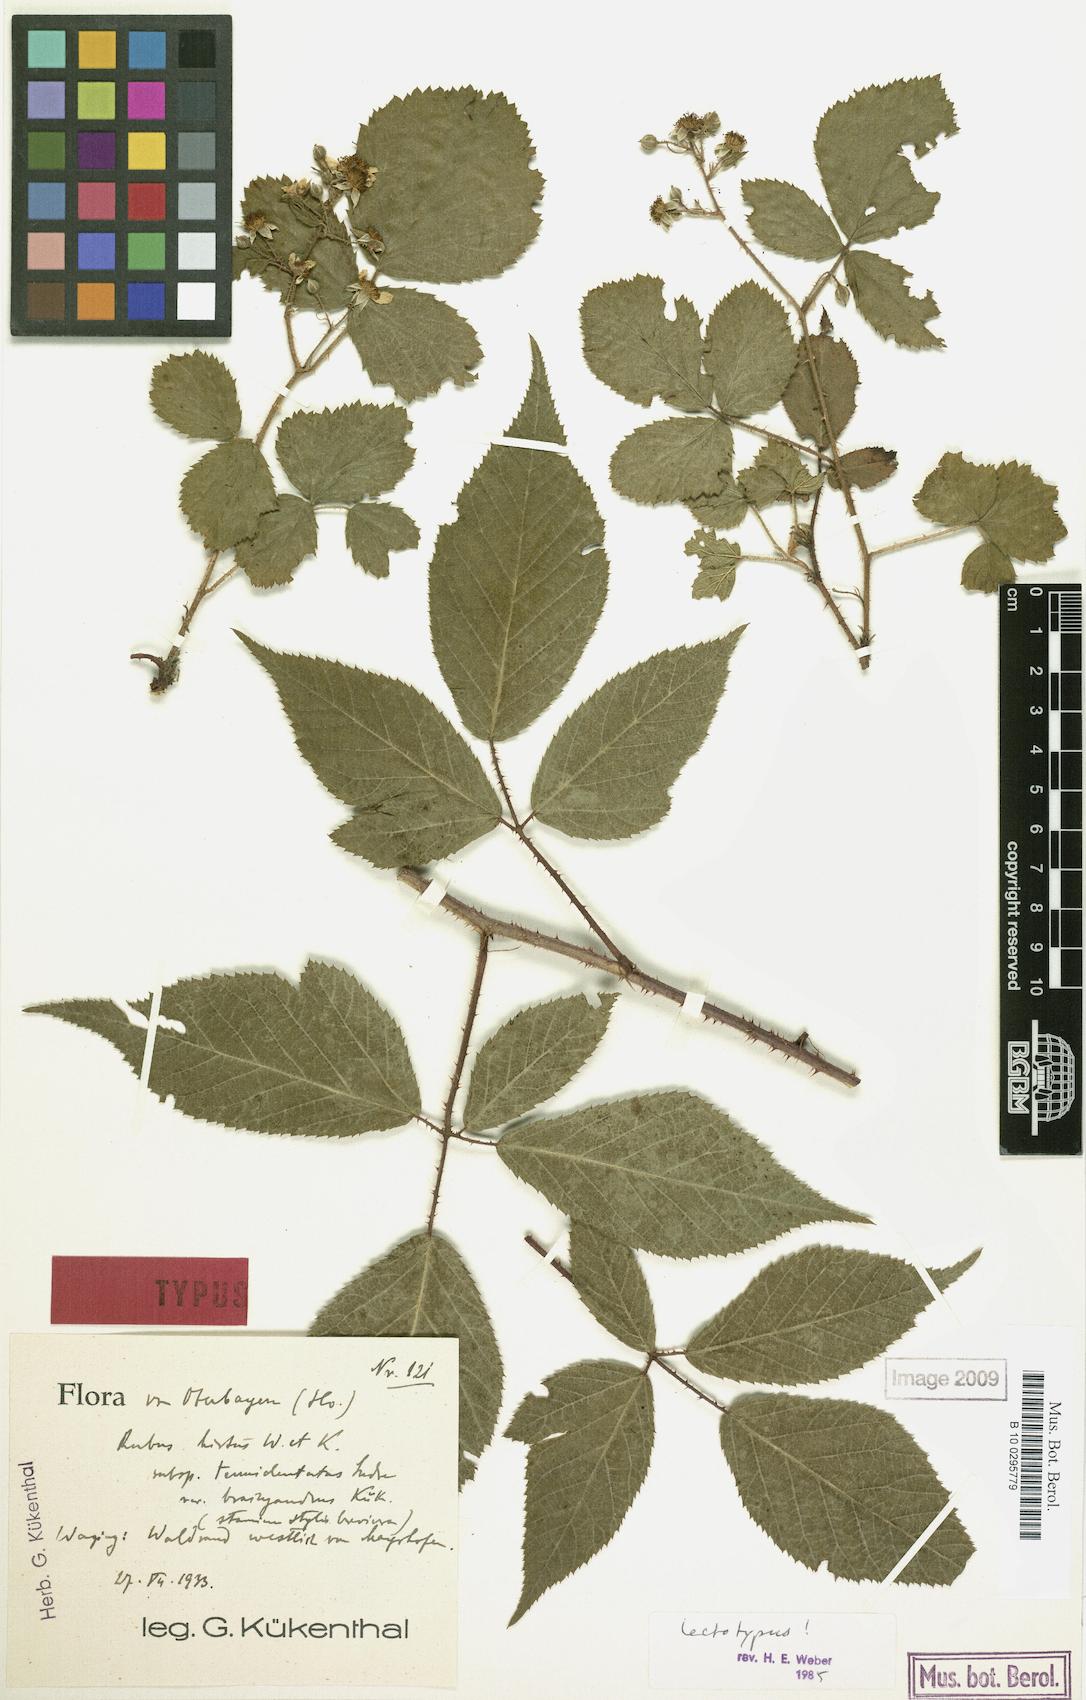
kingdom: Plantae
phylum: Tracheophyta
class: Magnoliopsida
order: Rosales
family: Rosaceae
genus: Rubus
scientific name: Rubus hirtus
